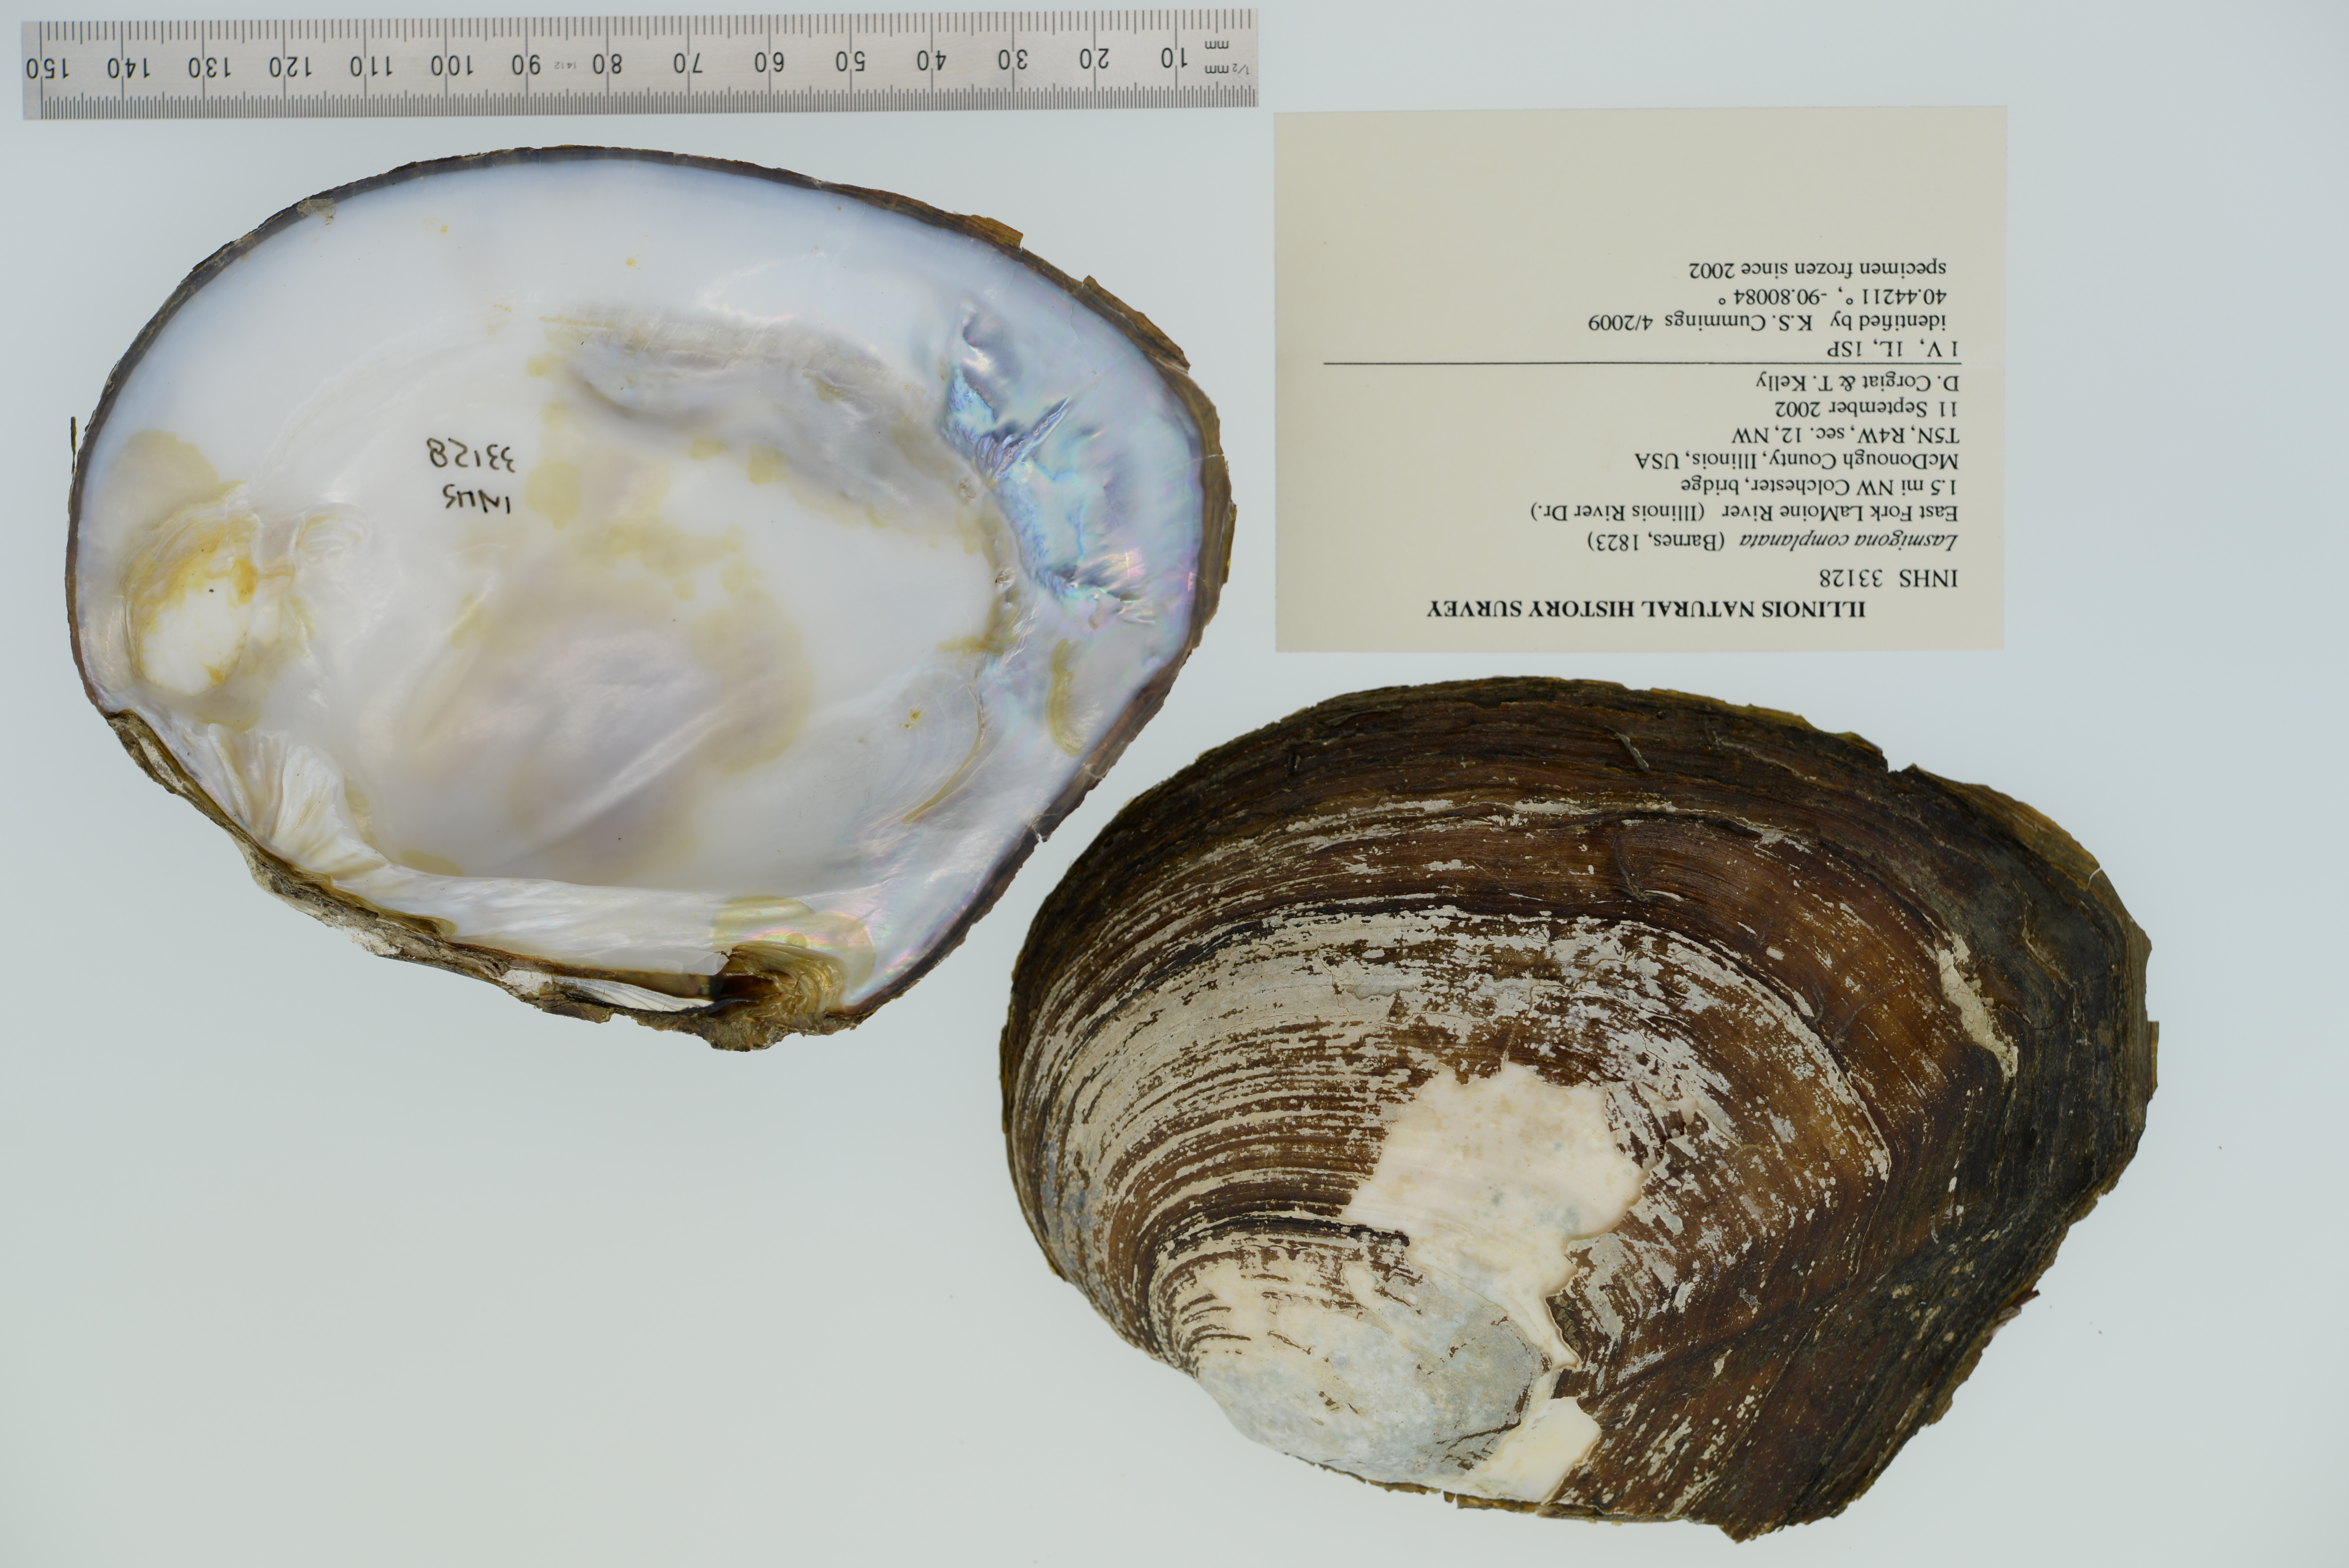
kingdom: Animalia
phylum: Mollusca
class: Bivalvia
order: Unionida
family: Unionidae
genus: Lasmigona
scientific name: Lasmigona complanata
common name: White heelsplitter
